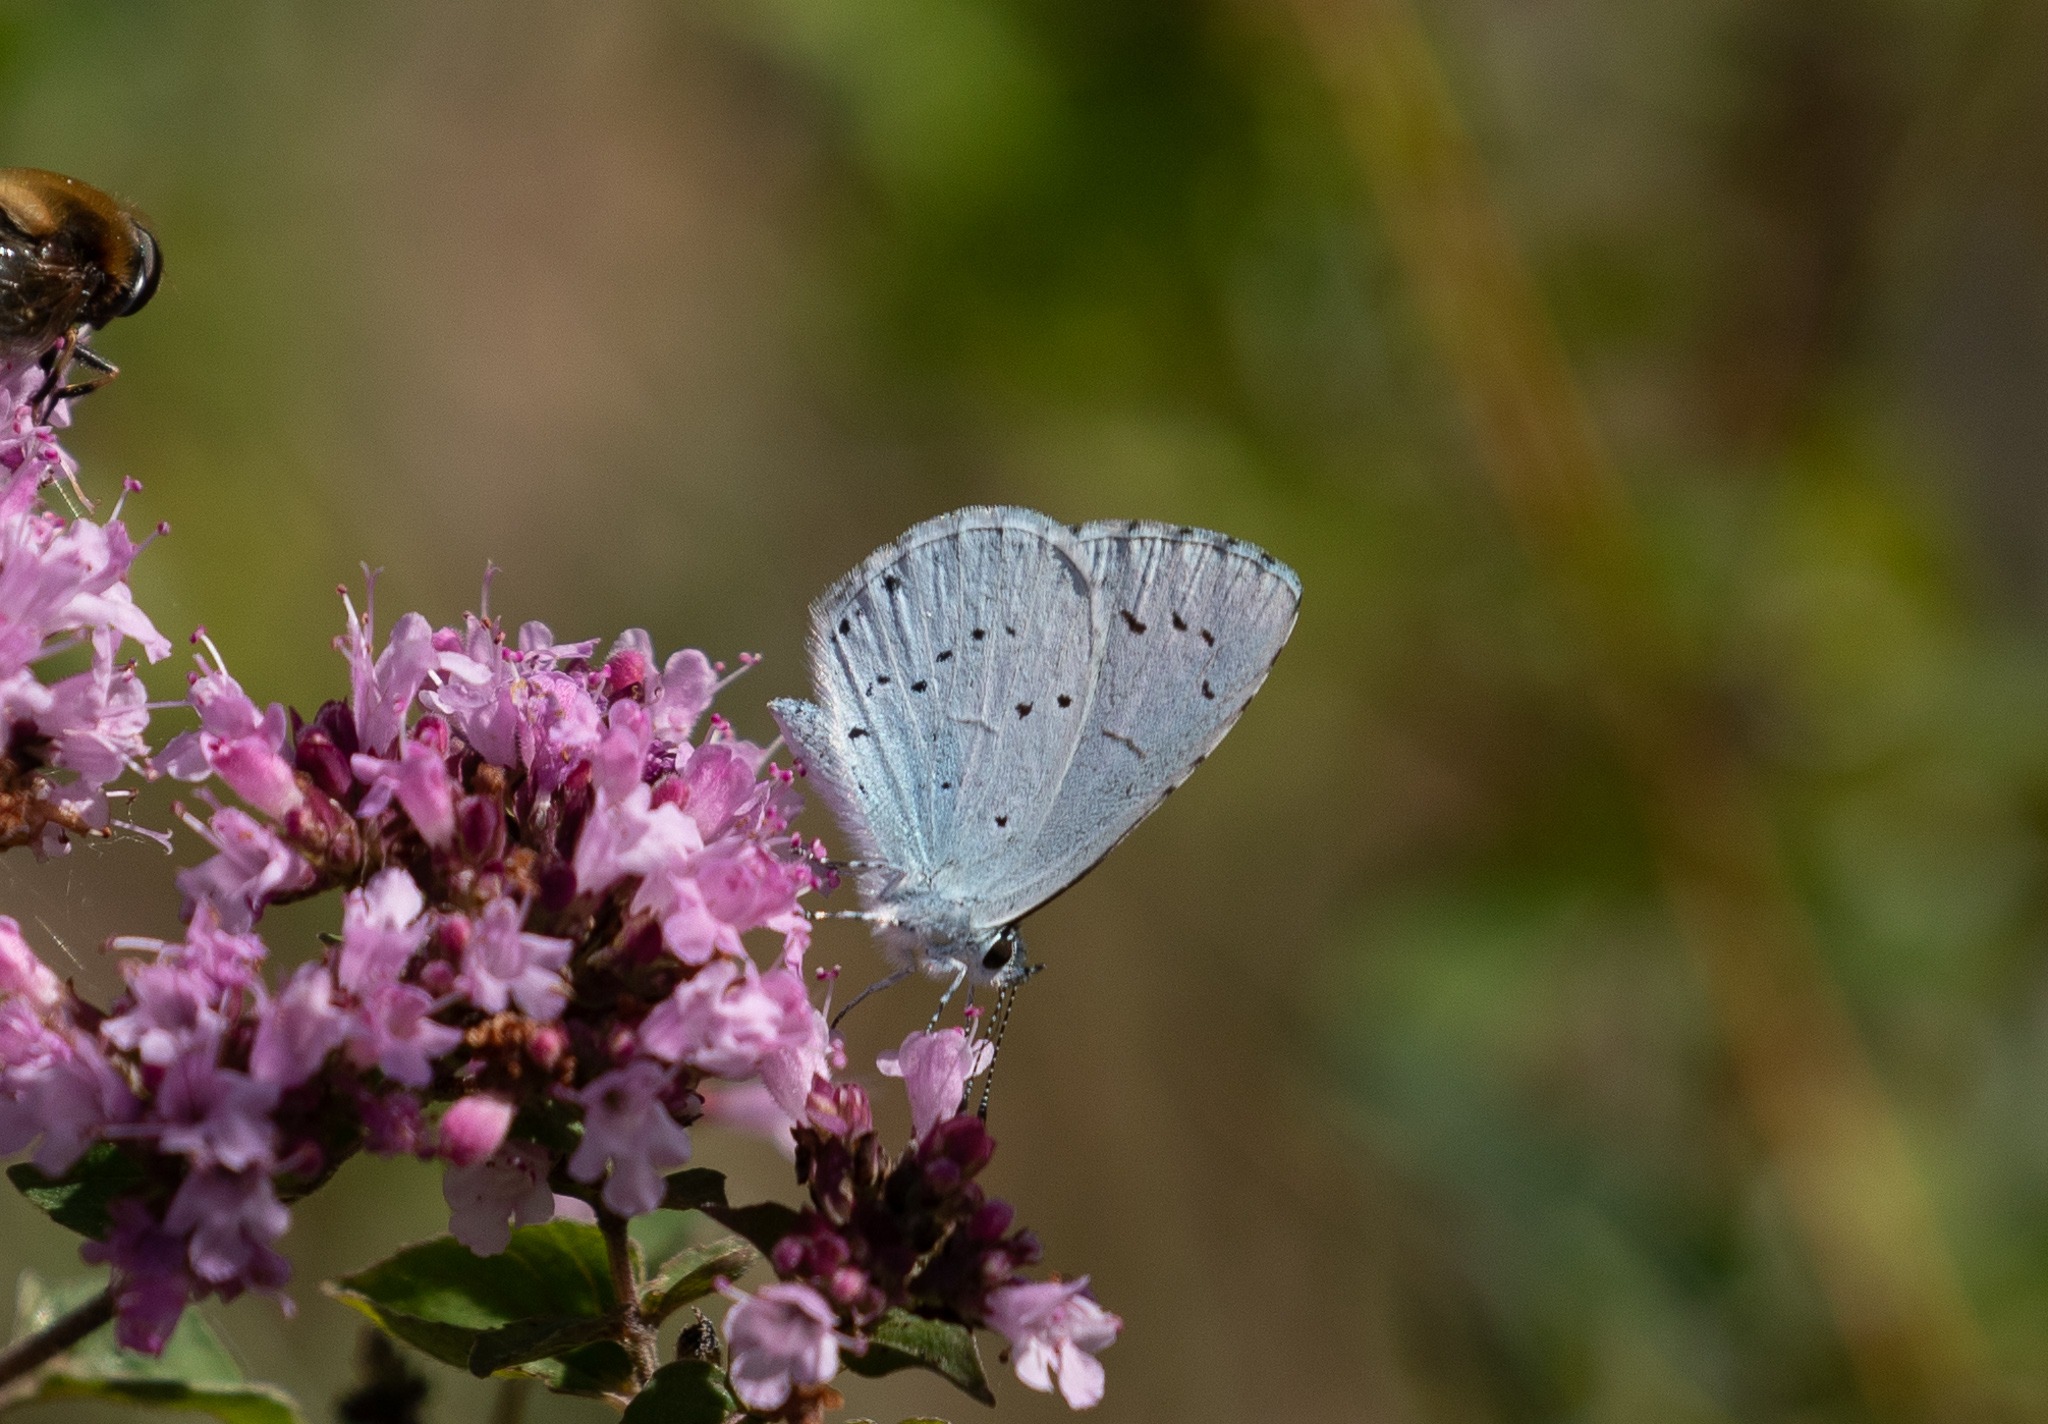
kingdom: Animalia
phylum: Arthropoda
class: Insecta
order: Lepidoptera
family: Lycaenidae
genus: Celastrina
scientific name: Celastrina argiolus
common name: Skovblåfugl
